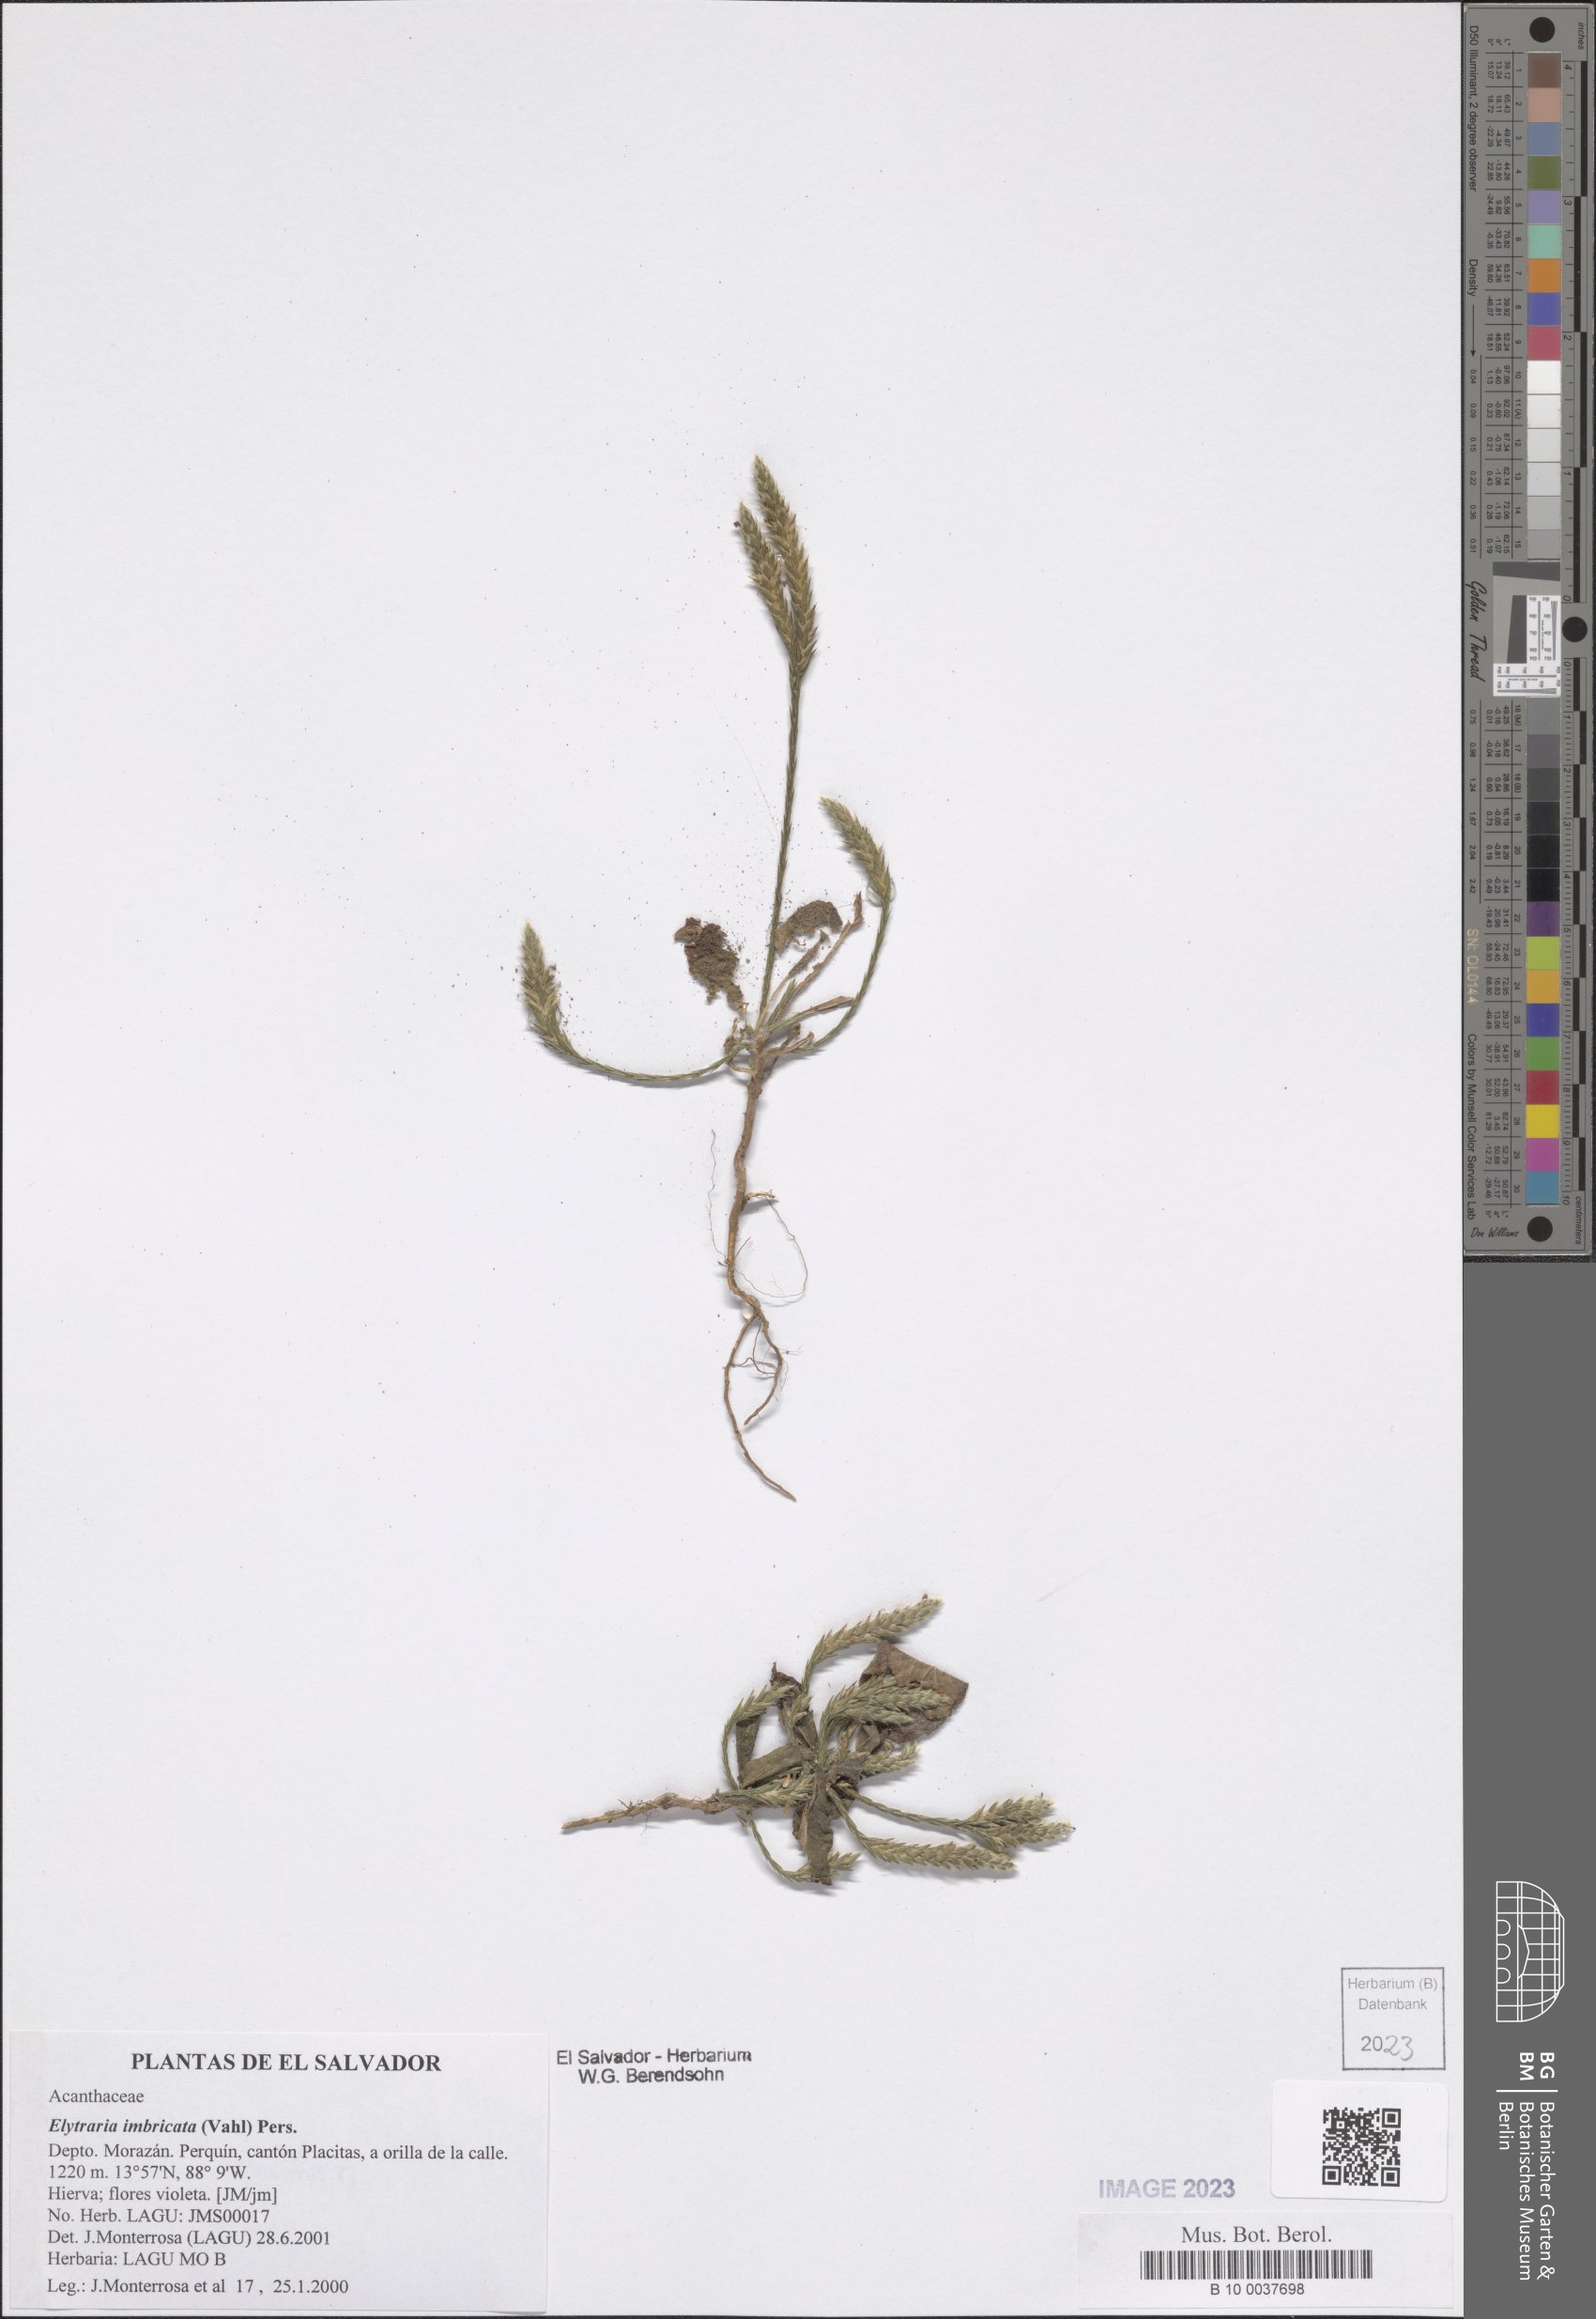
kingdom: Plantae
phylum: Tracheophyta
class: Magnoliopsida
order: Lamiales
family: Acanthaceae
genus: Elytraria
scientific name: Elytraria imbricata
